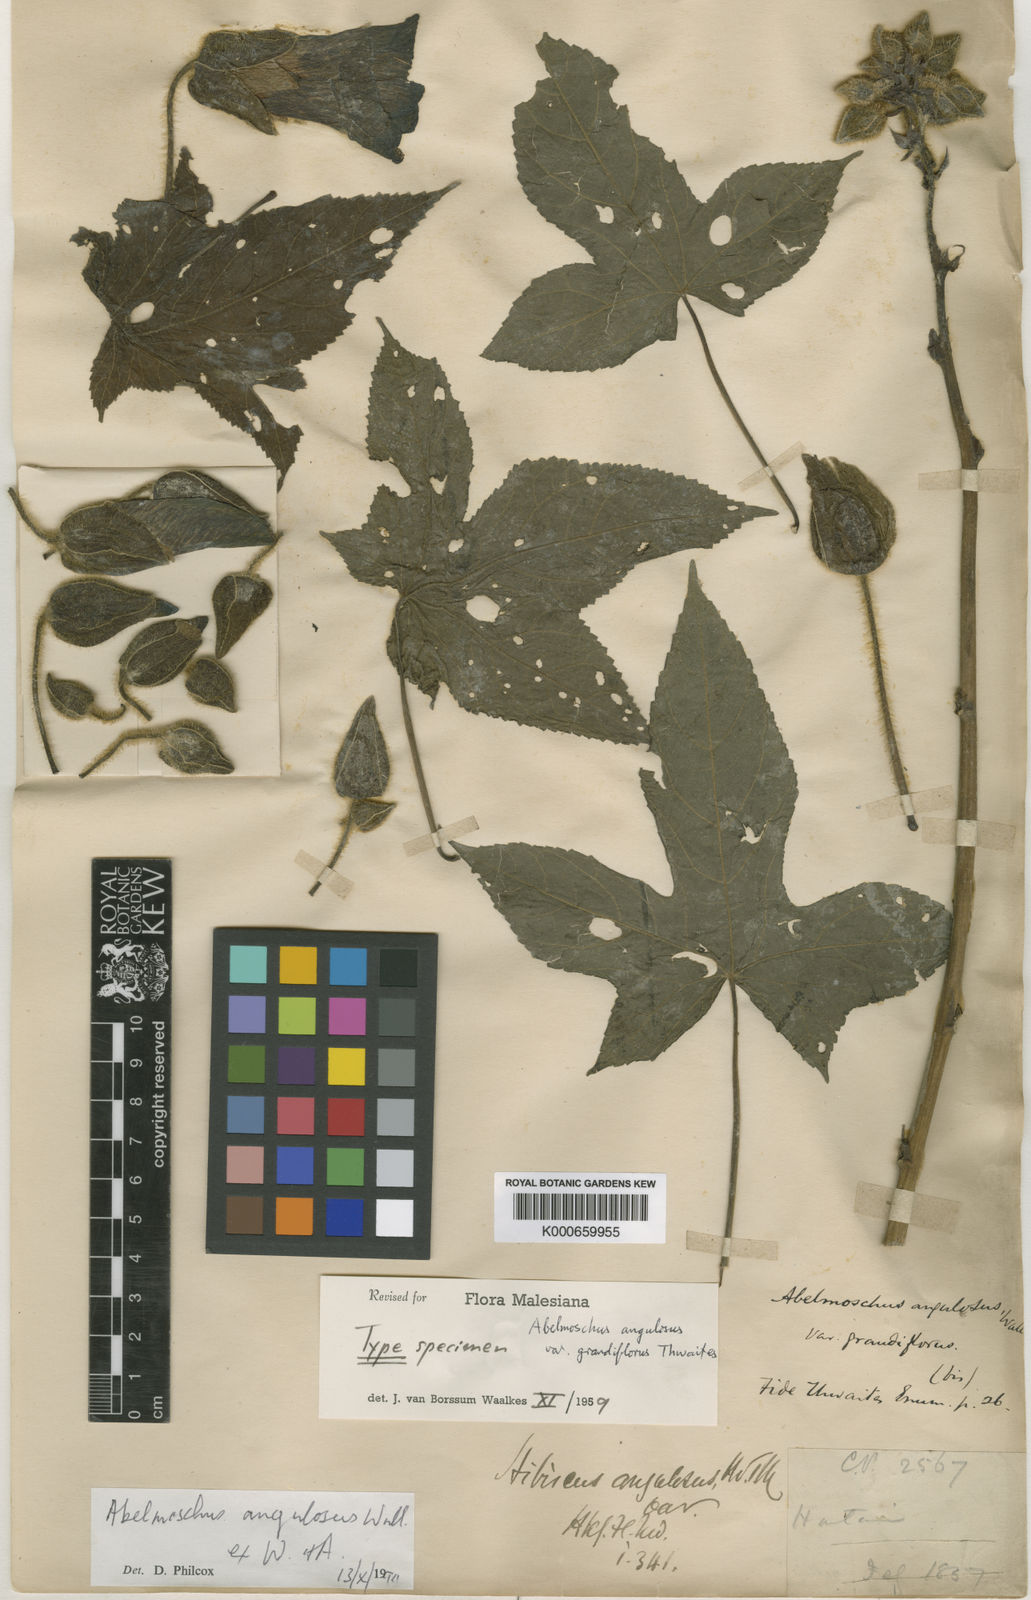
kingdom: Plantae
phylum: Tracheophyta
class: Magnoliopsida
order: Malvales
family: Malvaceae
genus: Abelmoschus
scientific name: Abelmoschus angulosus
